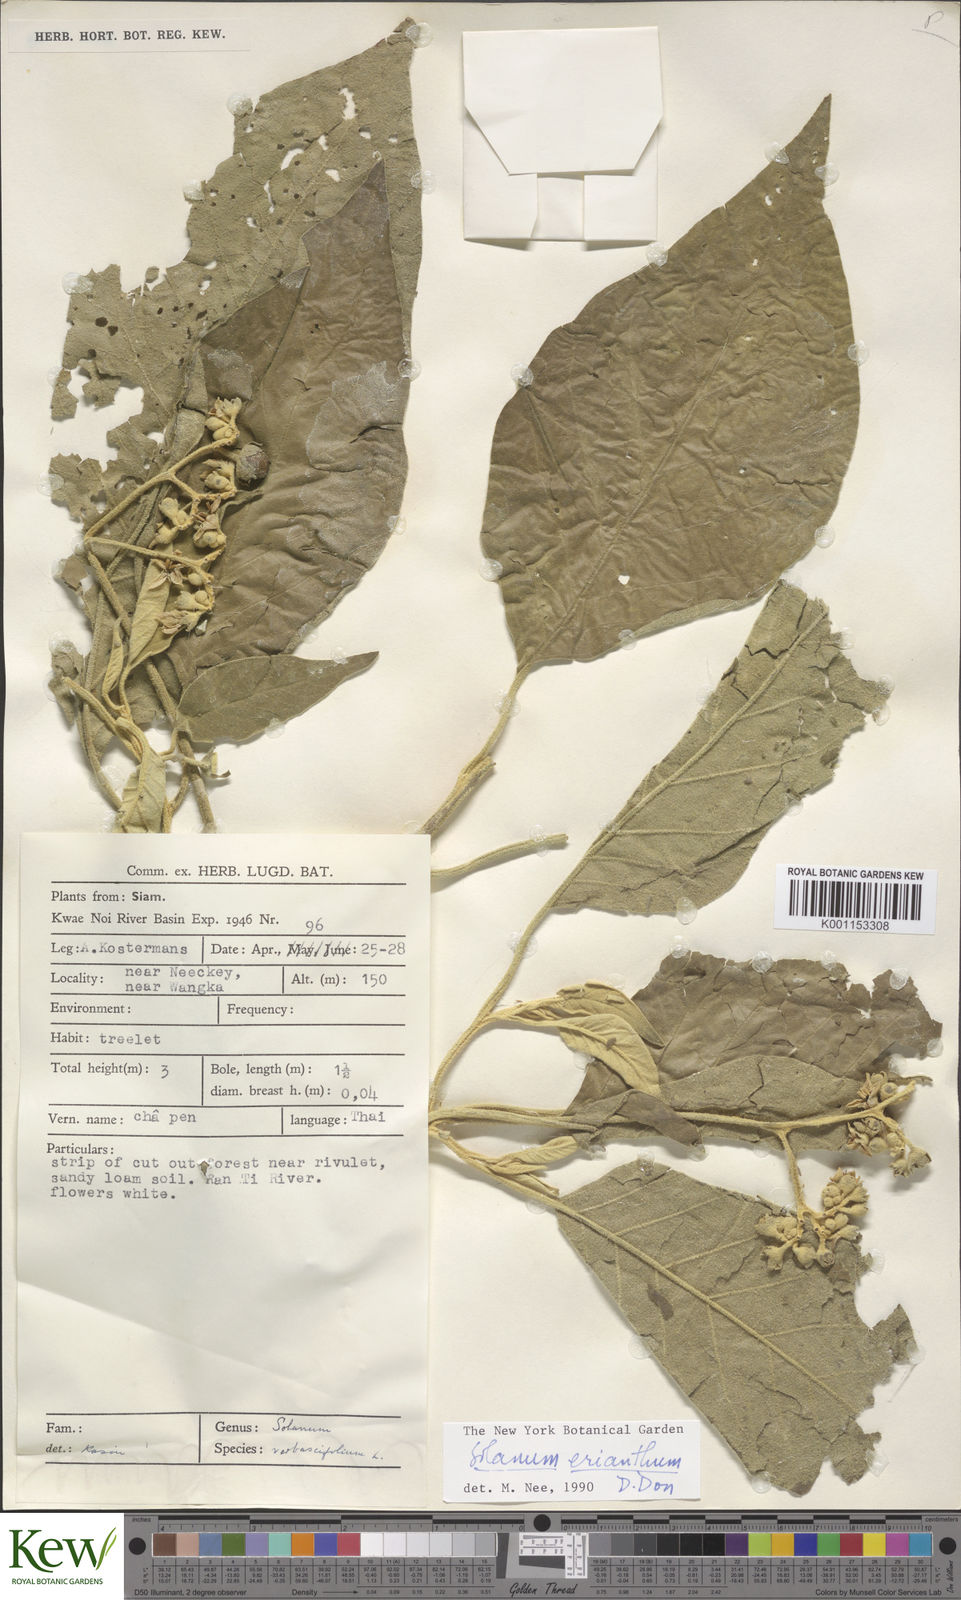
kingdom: Plantae
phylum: Tracheophyta
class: Magnoliopsida
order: Solanales
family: Solanaceae
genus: Solanum
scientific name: Solanum erianthum
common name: Tobacco-tree
